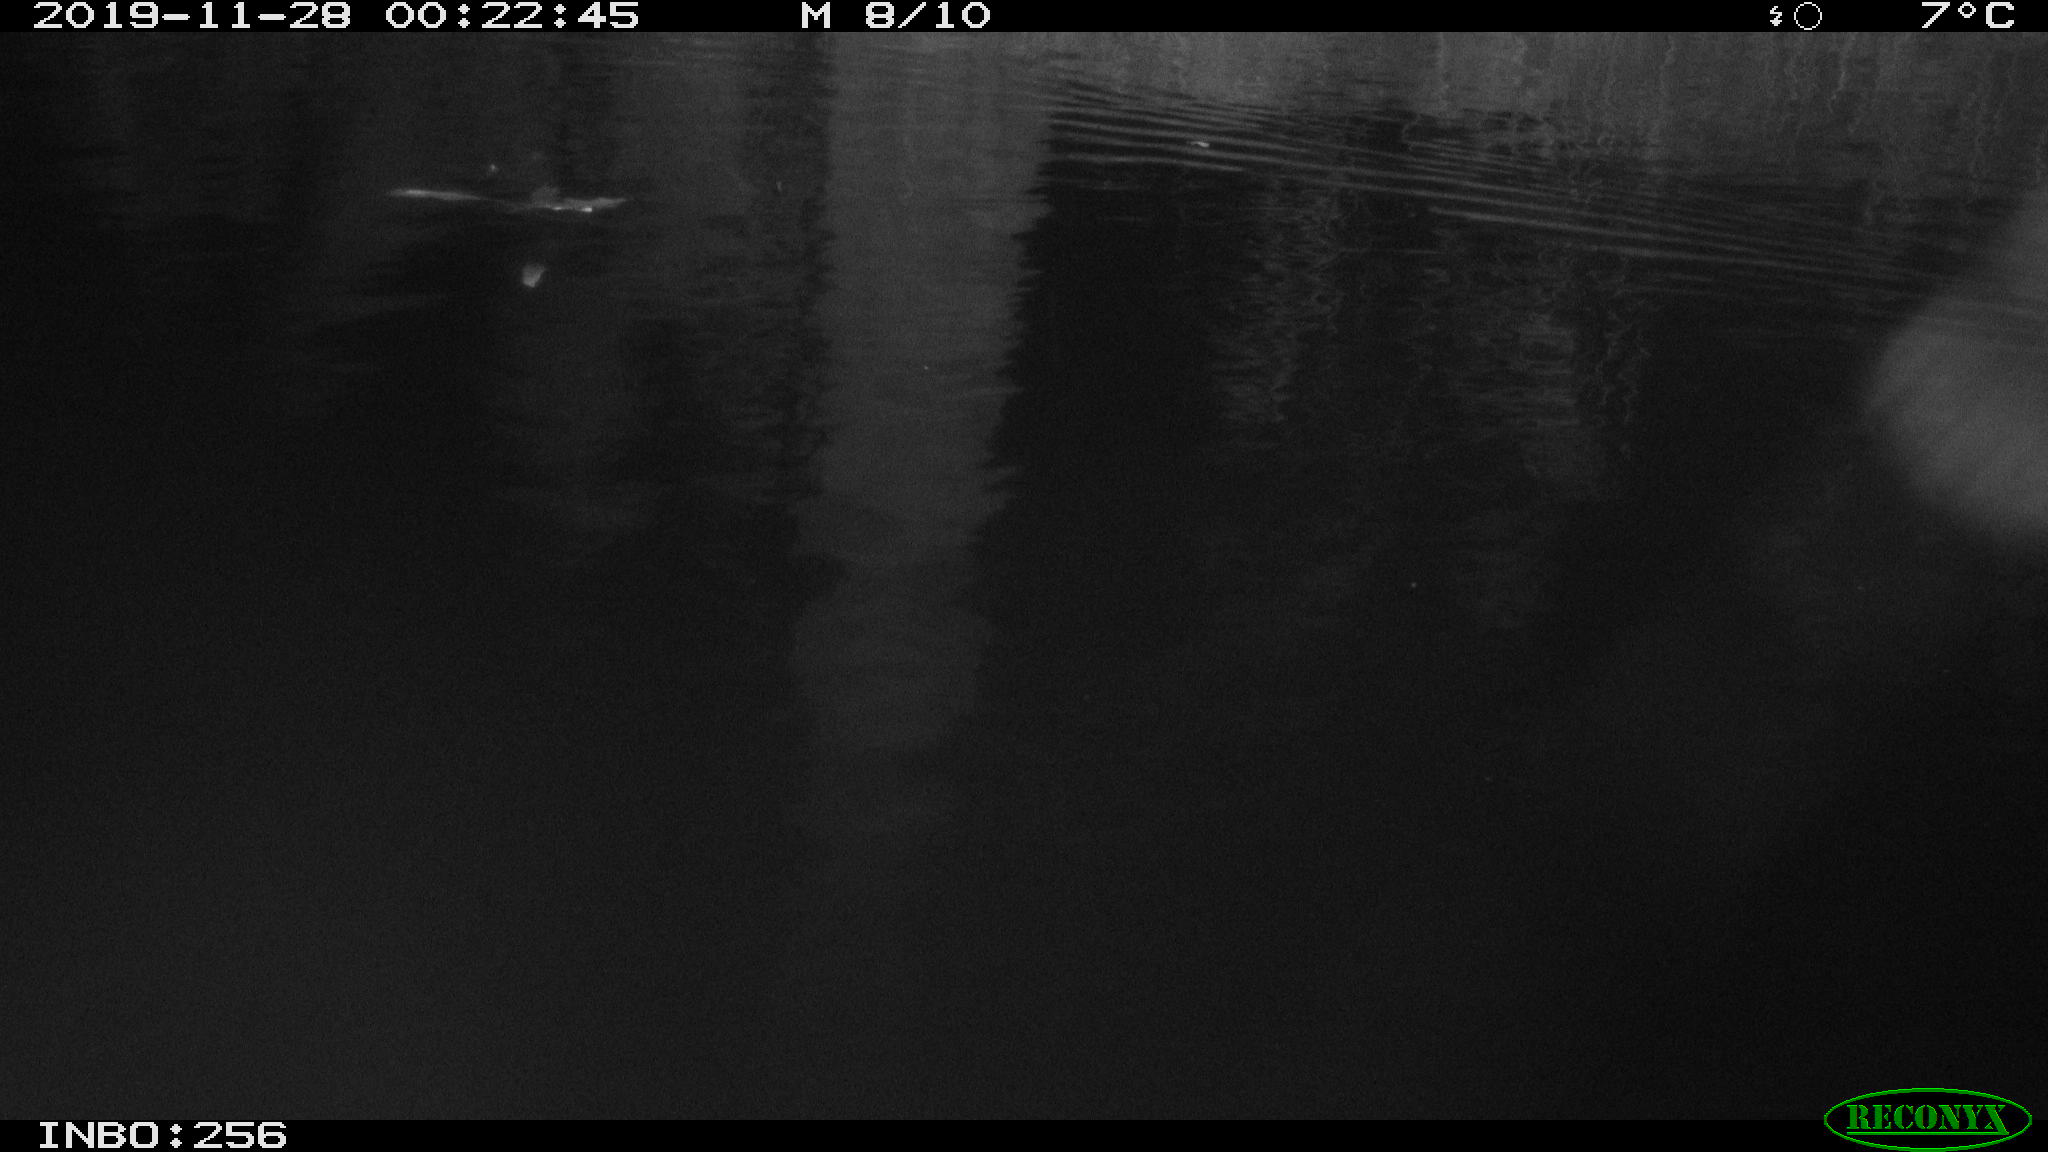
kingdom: Animalia
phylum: Chordata
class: Mammalia
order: Rodentia
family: Cricetidae
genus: Ondatra
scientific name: Ondatra zibethicus
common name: Muskrat
